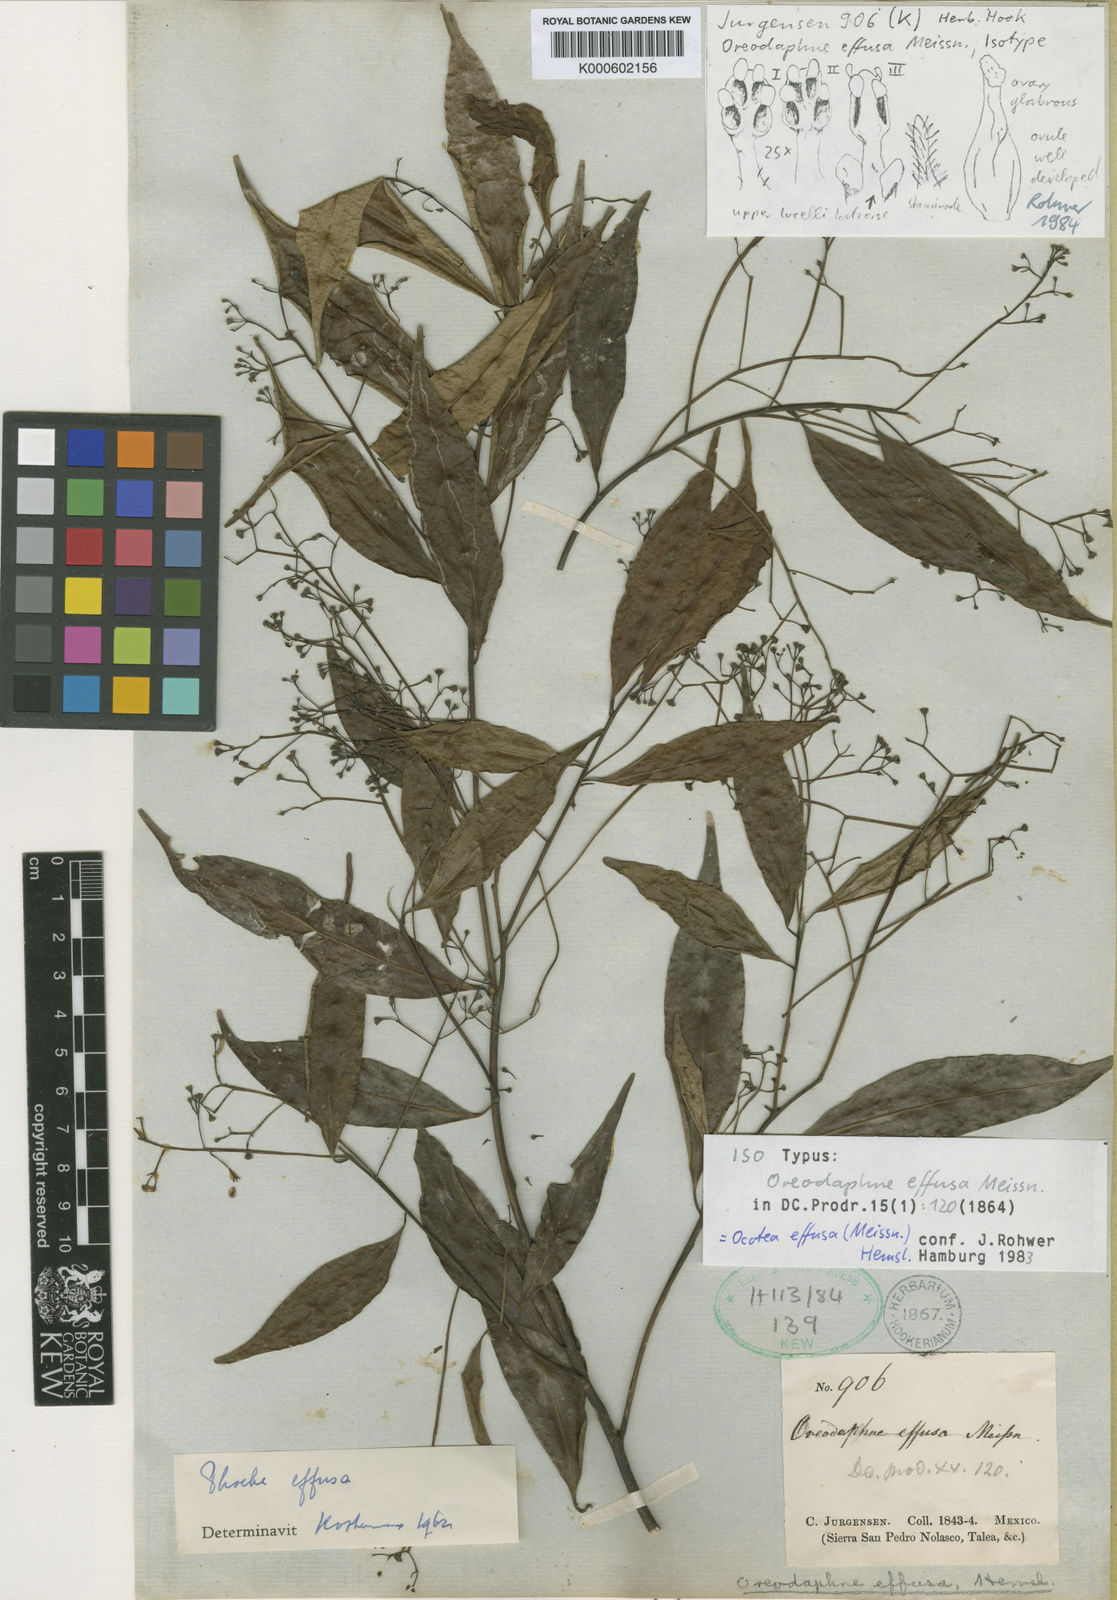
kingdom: Plantae
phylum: Tracheophyta
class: Magnoliopsida
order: Laurales
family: Lauraceae
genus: Ocotea
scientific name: Ocotea effusa
